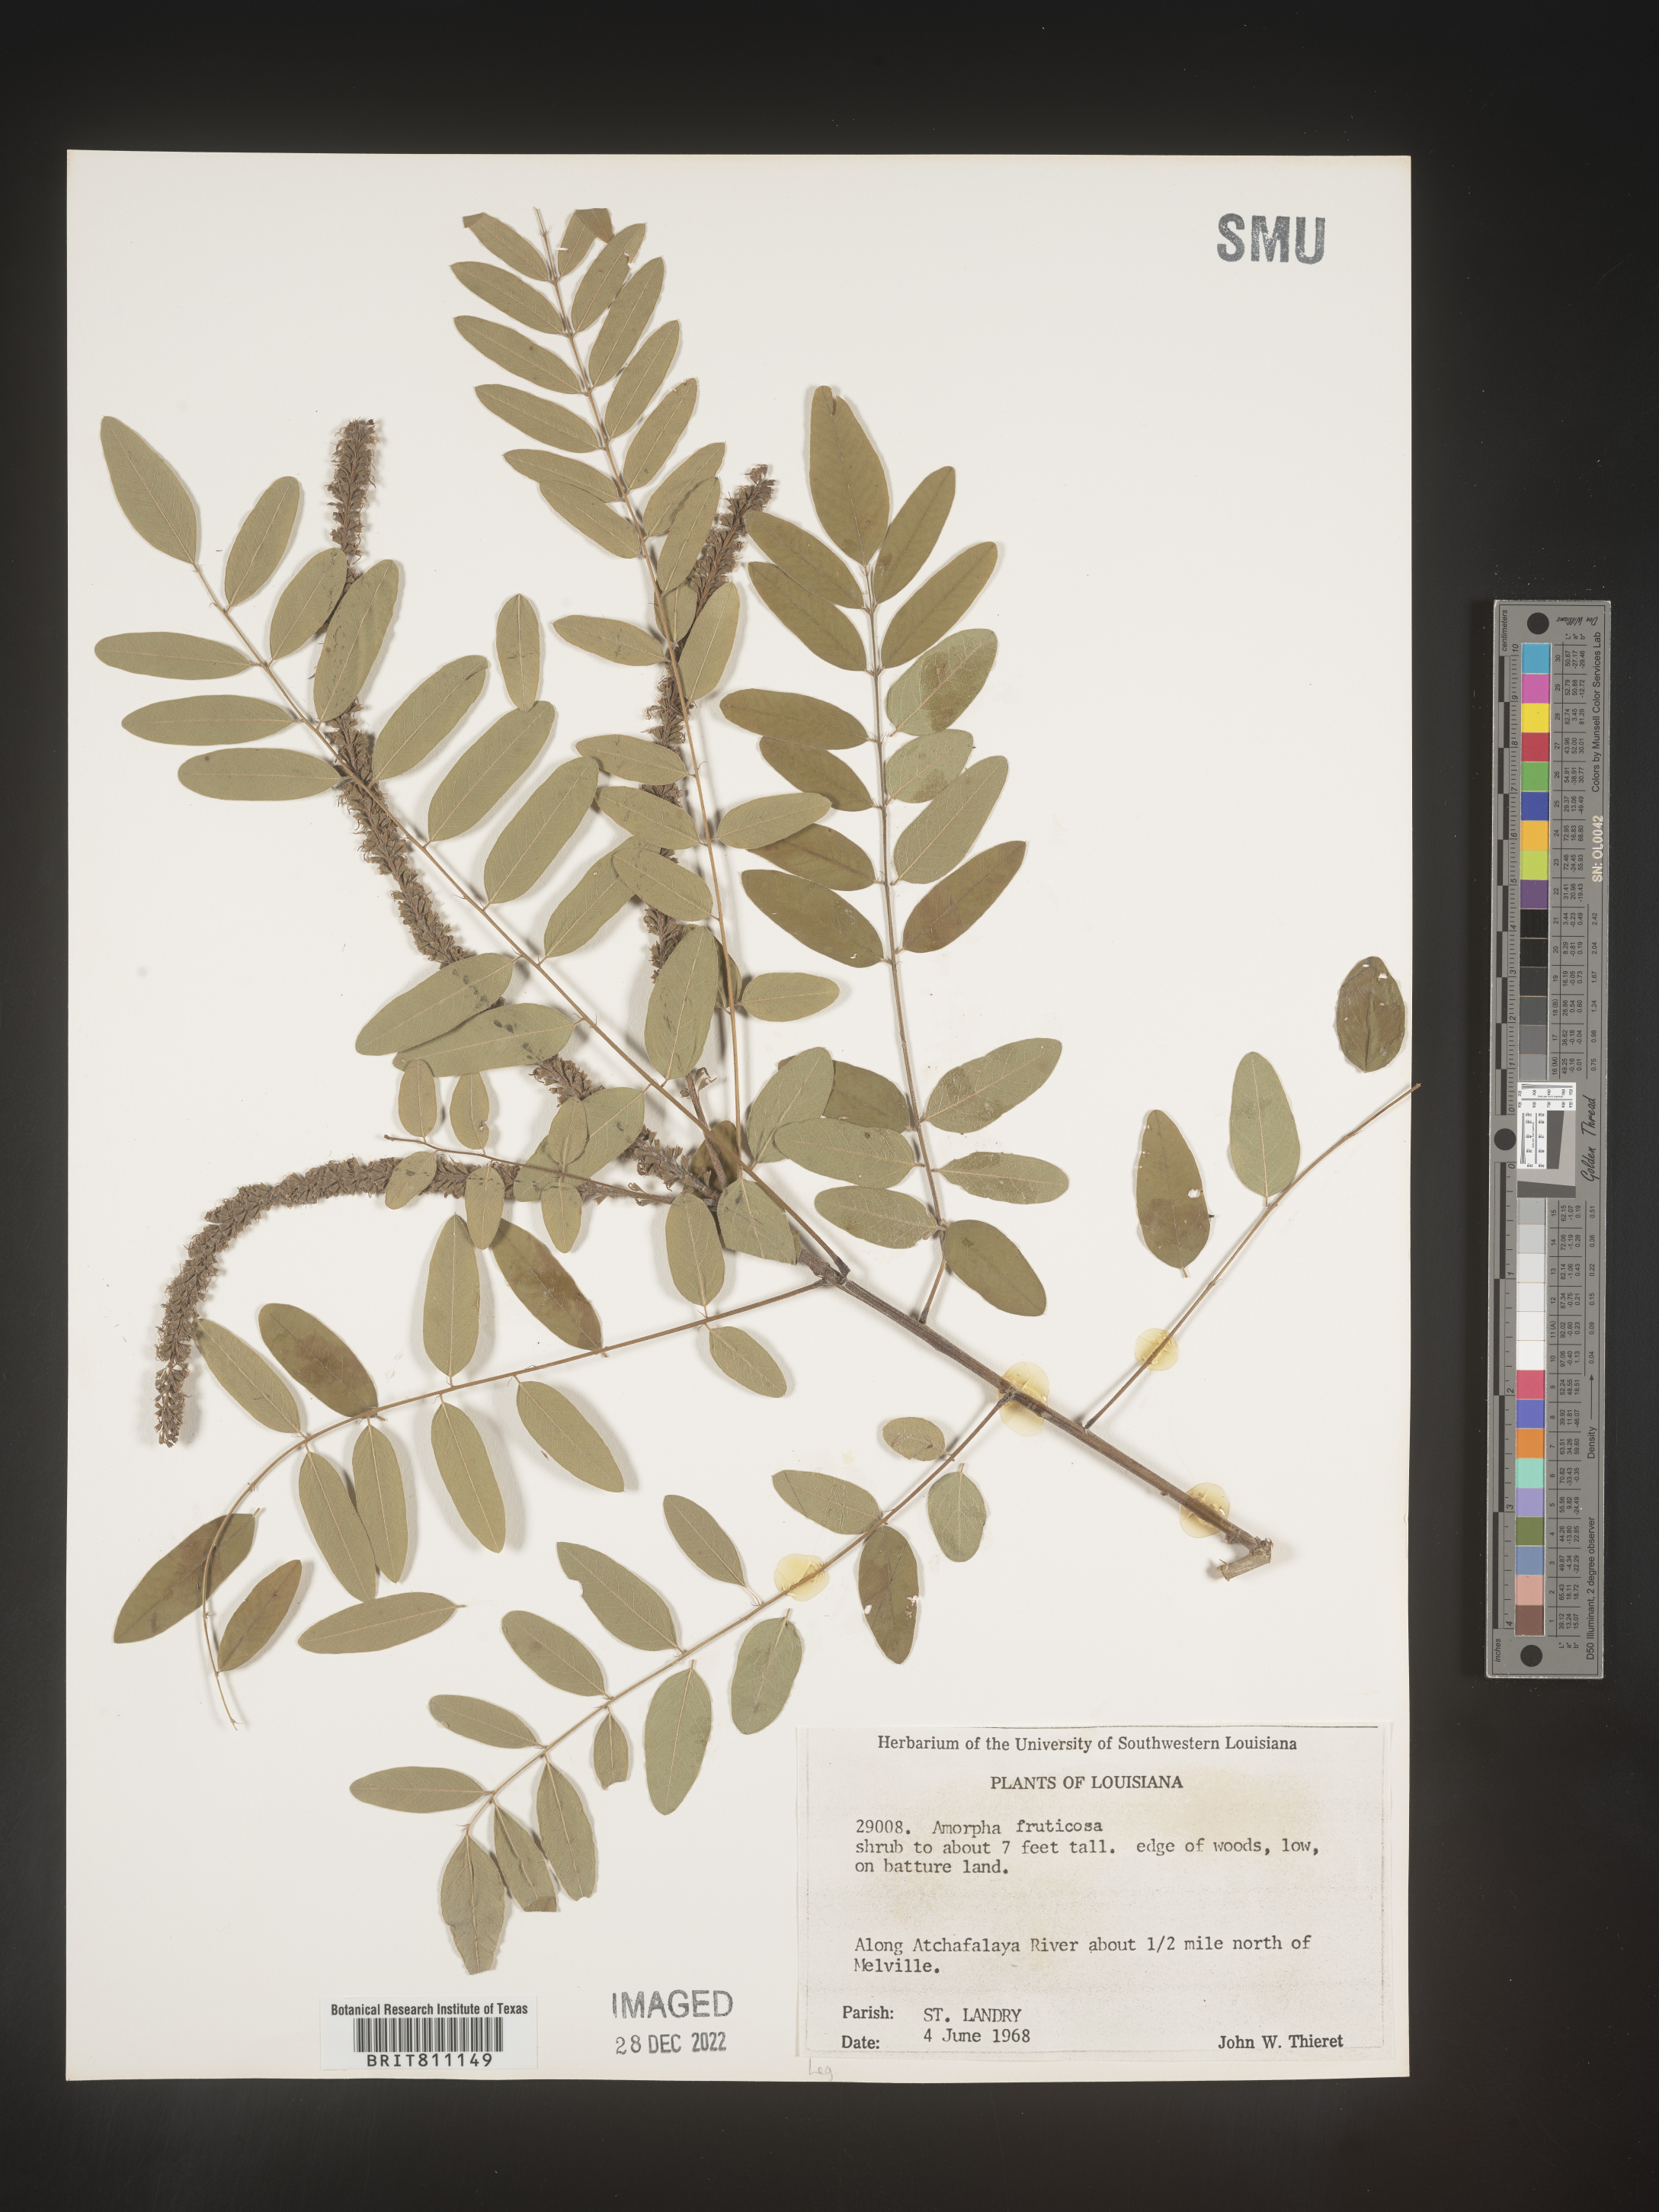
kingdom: Plantae
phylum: Tracheophyta
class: Magnoliopsida
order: Fabales
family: Fabaceae
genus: Amorpha
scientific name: Amorpha fruticosa
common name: False indigo
